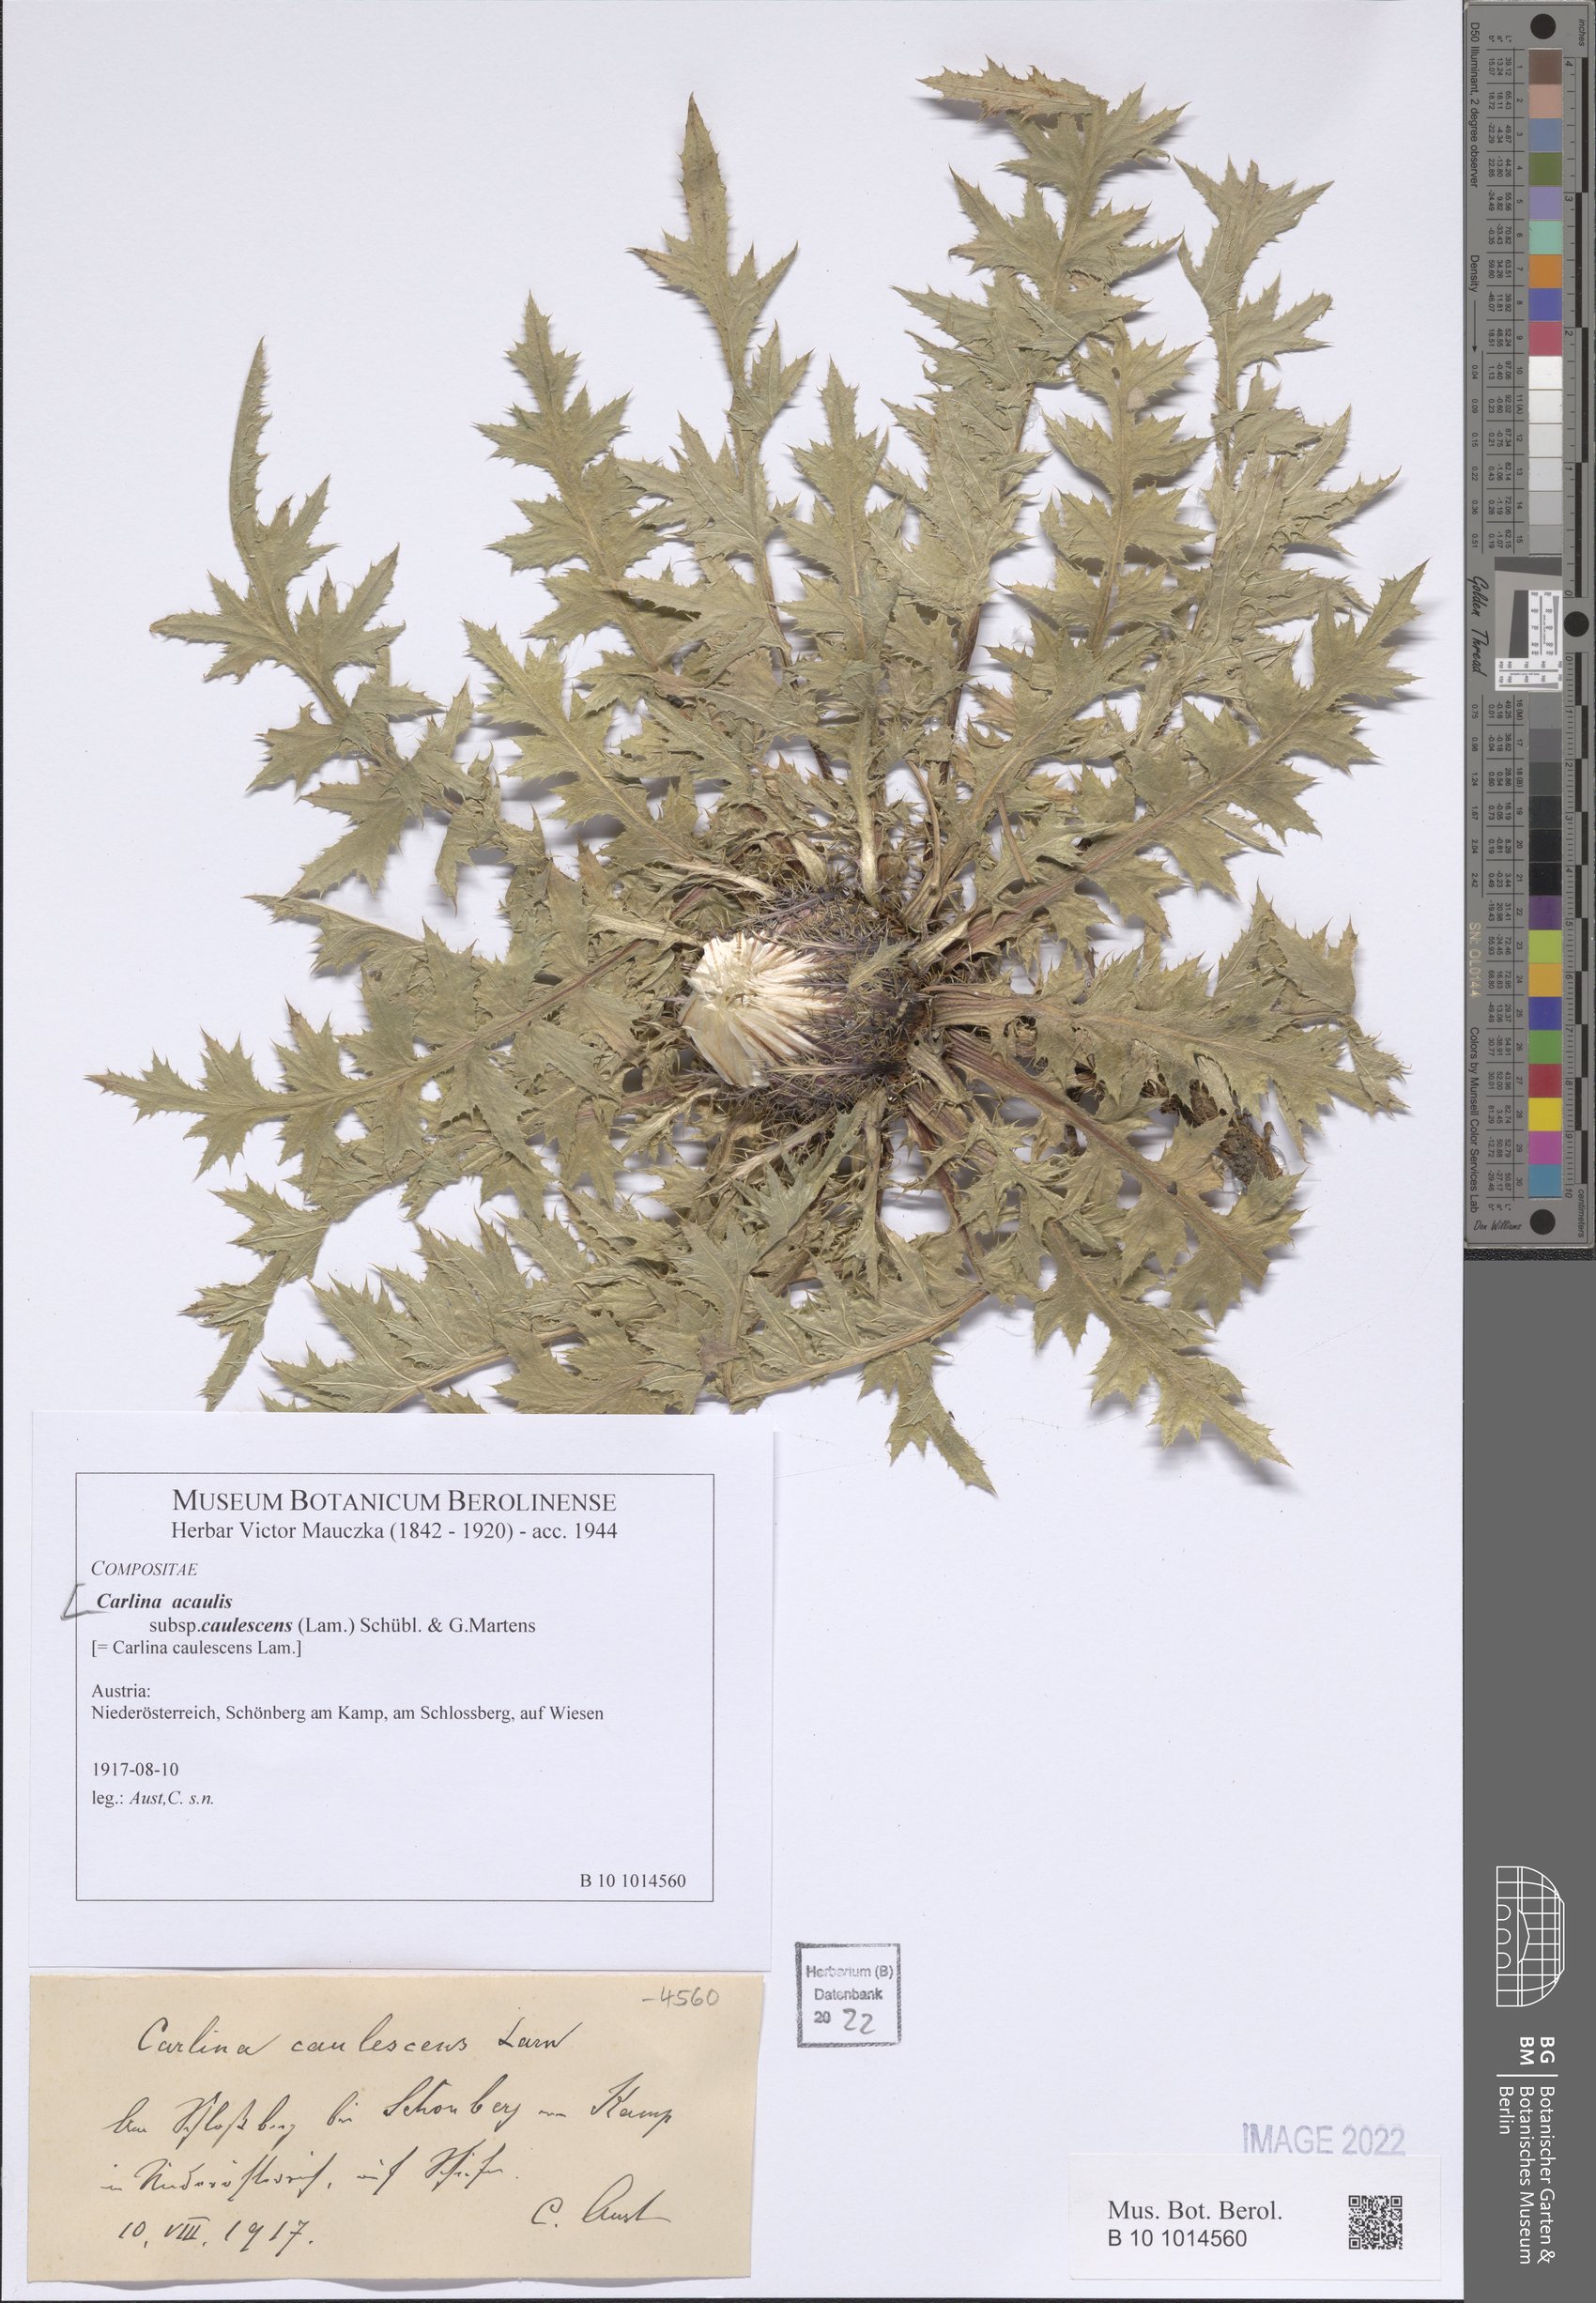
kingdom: Plantae
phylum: Tracheophyta
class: Magnoliopsida
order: Asterales
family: Asteraceae
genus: Carlina
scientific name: Carlina acaulis
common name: Stemless carline thistle
